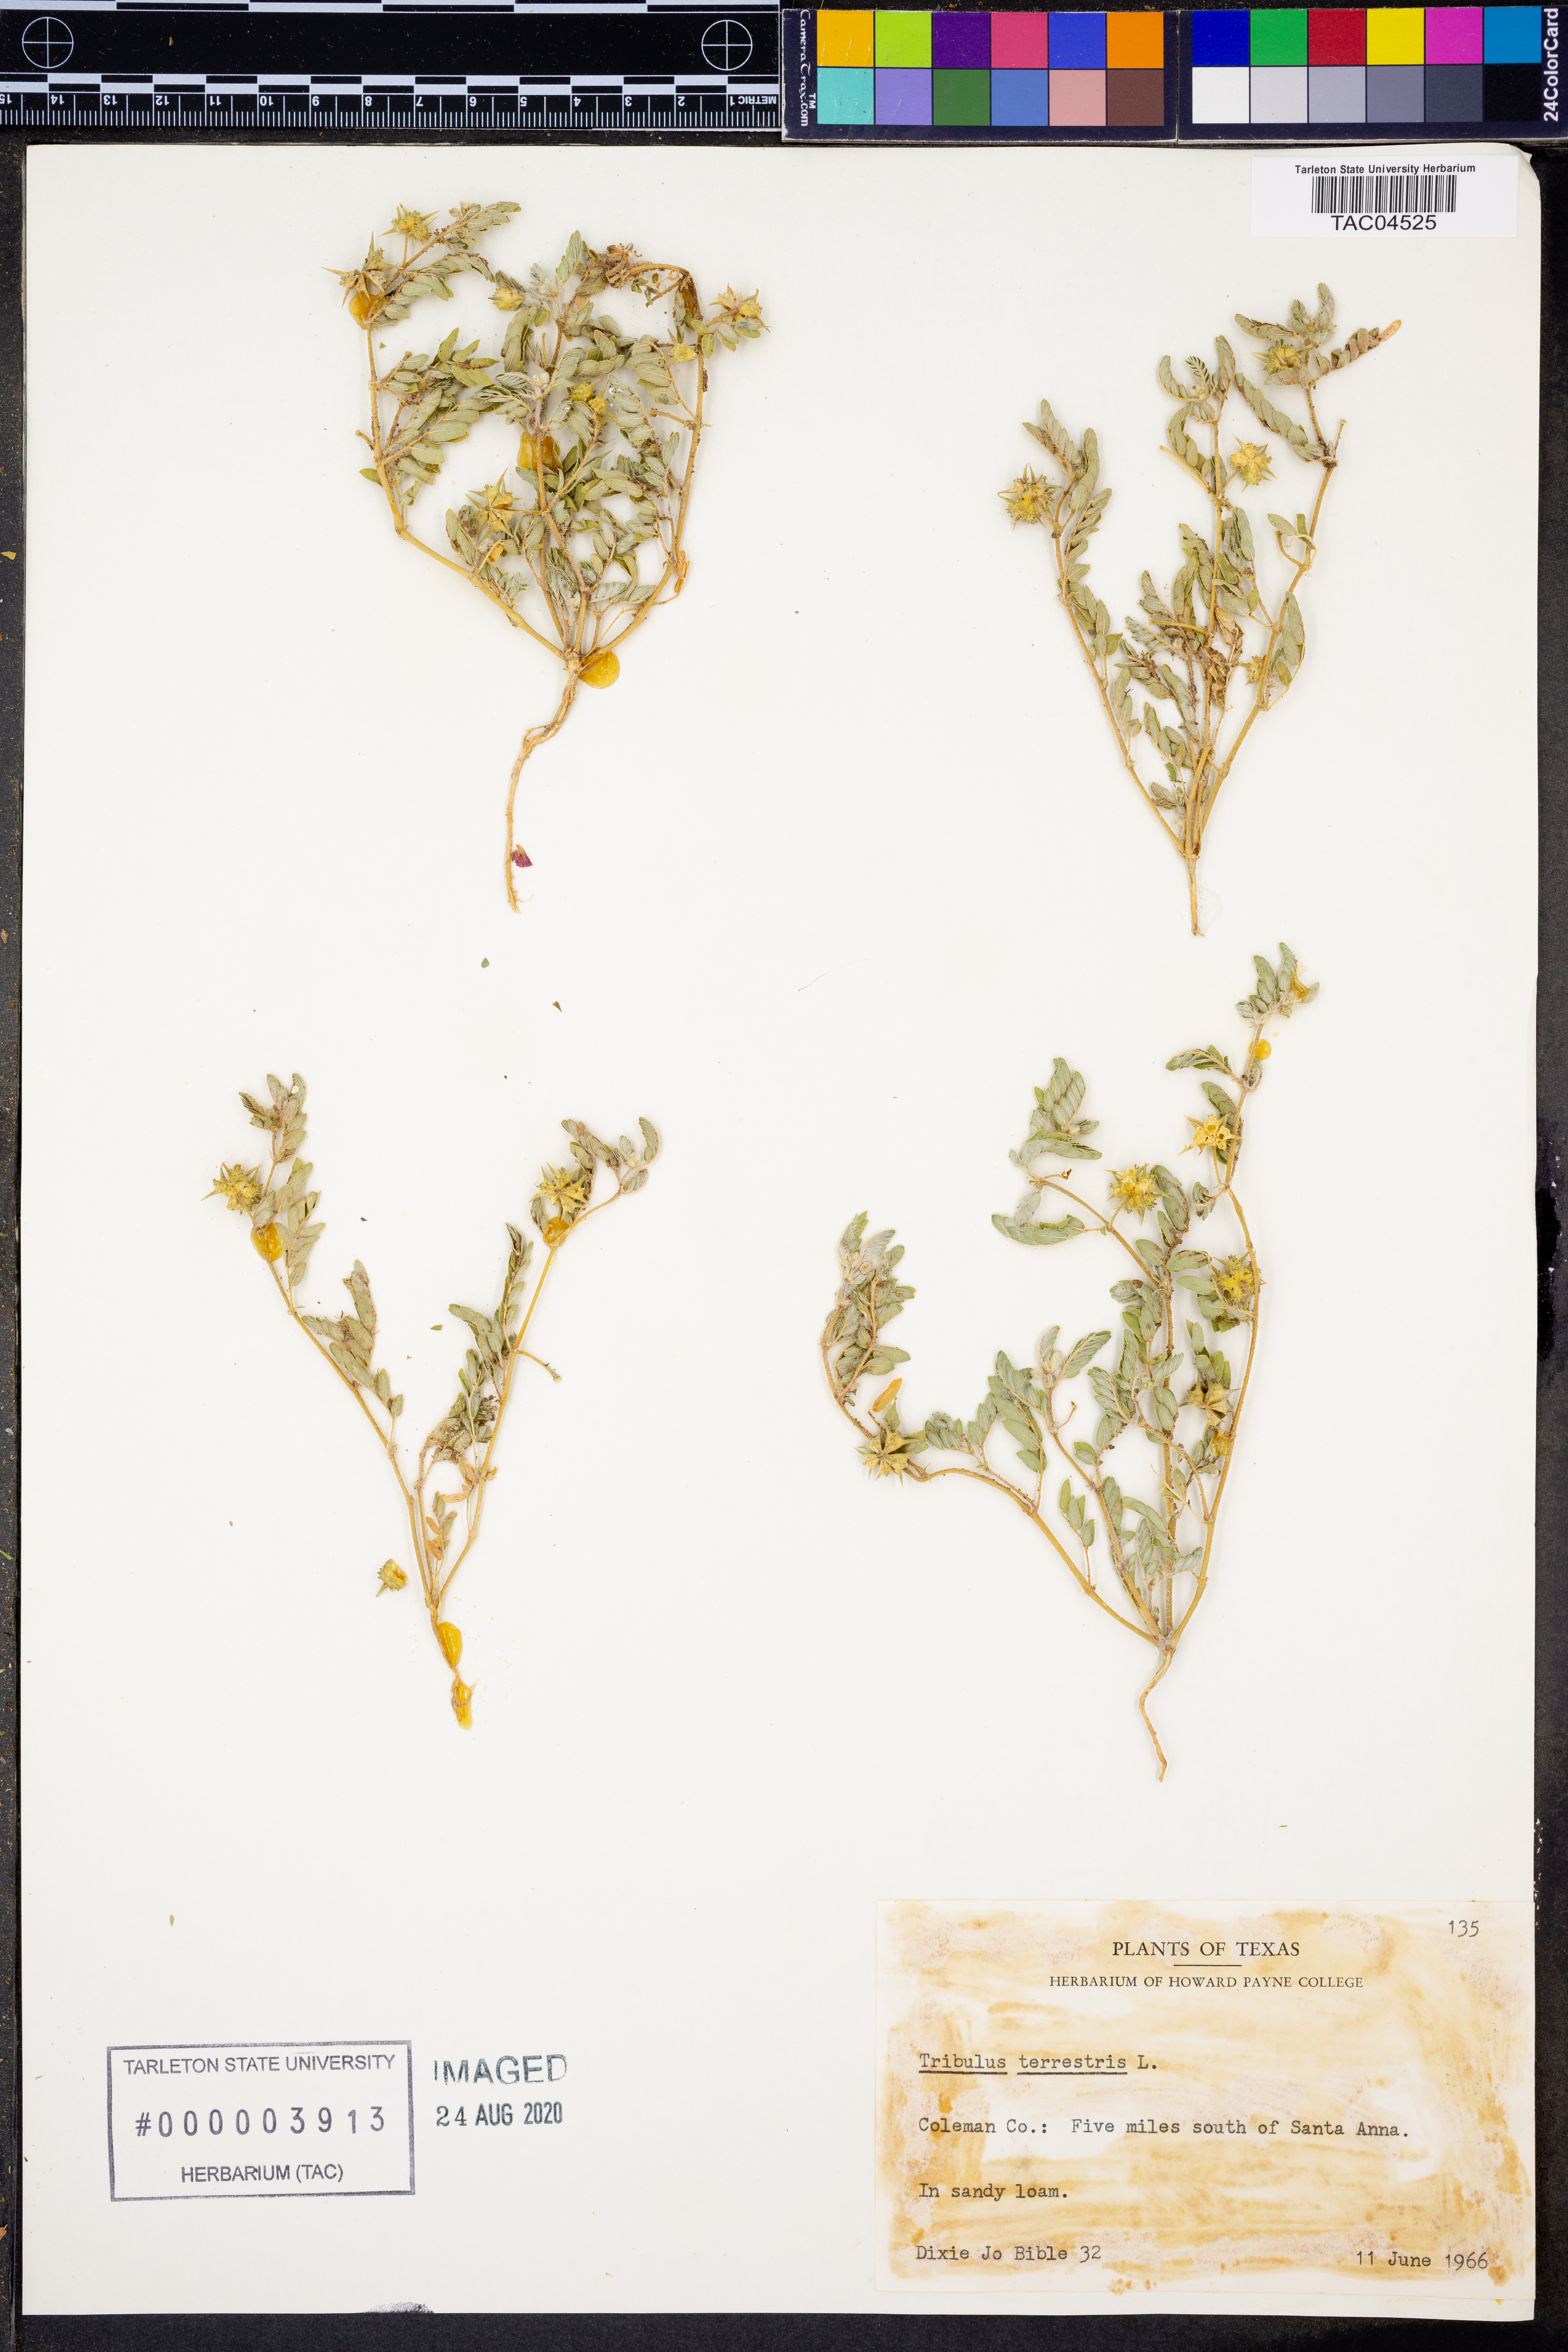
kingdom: Plantae
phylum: Tracheophyta
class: Magnoliopsida
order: Zygophyllales
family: Zygophyllaceae
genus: Tribulus
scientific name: Tribulus terrestris
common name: Puncturevine
